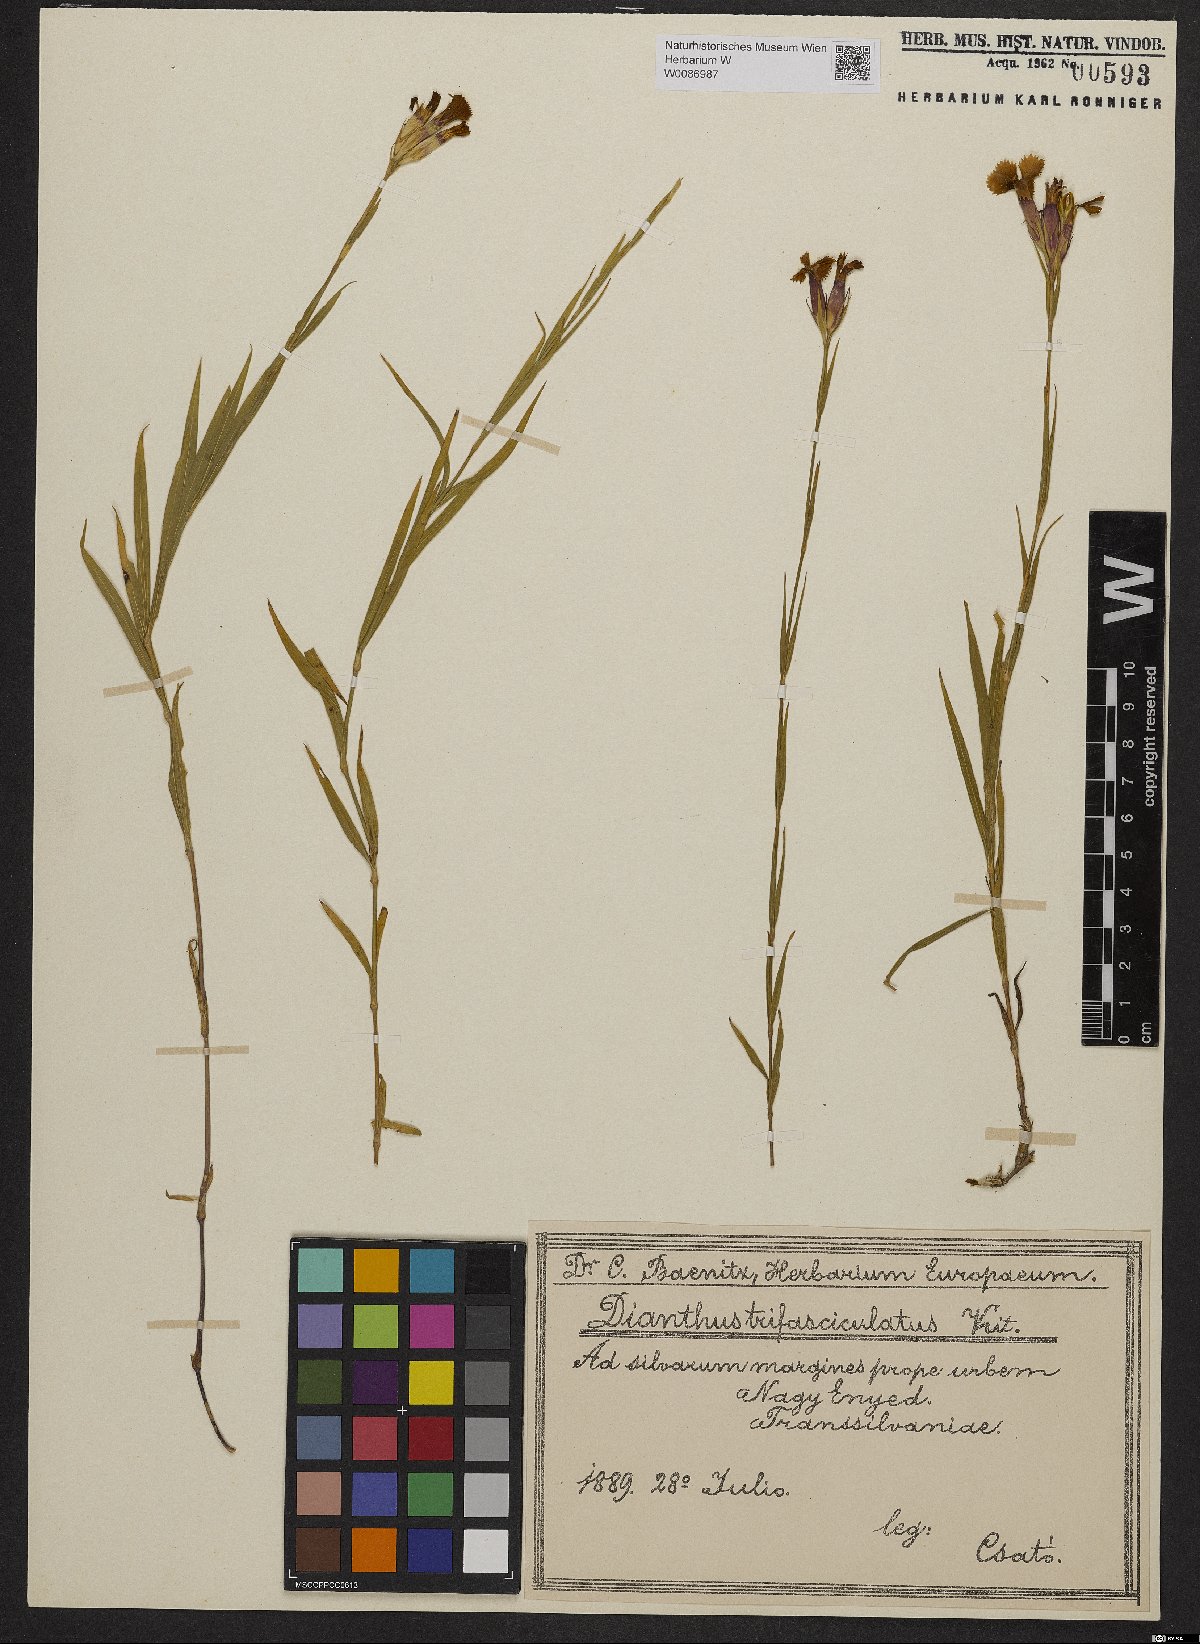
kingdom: Plantae
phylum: Tracheophyta
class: Magnoliopsida
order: Caryophyllales
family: Caryophyllaceae
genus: Dianthus
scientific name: Dianthus trifasciculatus
